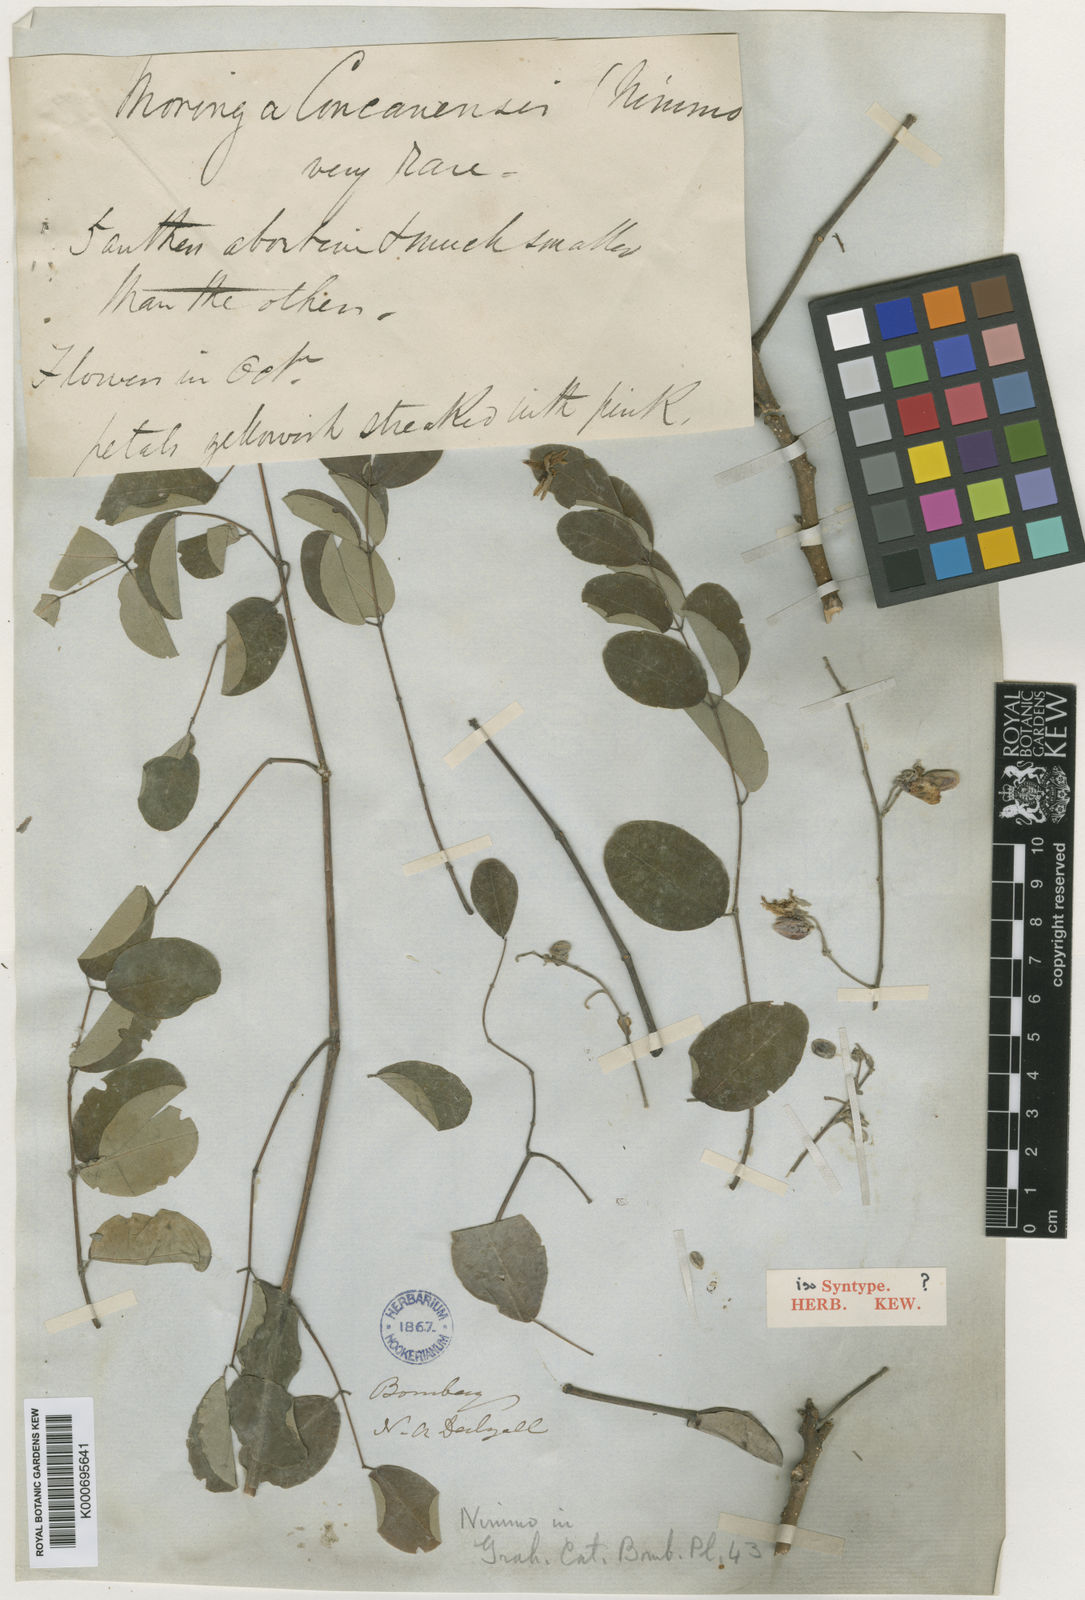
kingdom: Plantae
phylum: Tracheophyta
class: Magnoliopsida
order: Brassicales
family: Moringaceae
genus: Moringa
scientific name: Moringa concanensis
